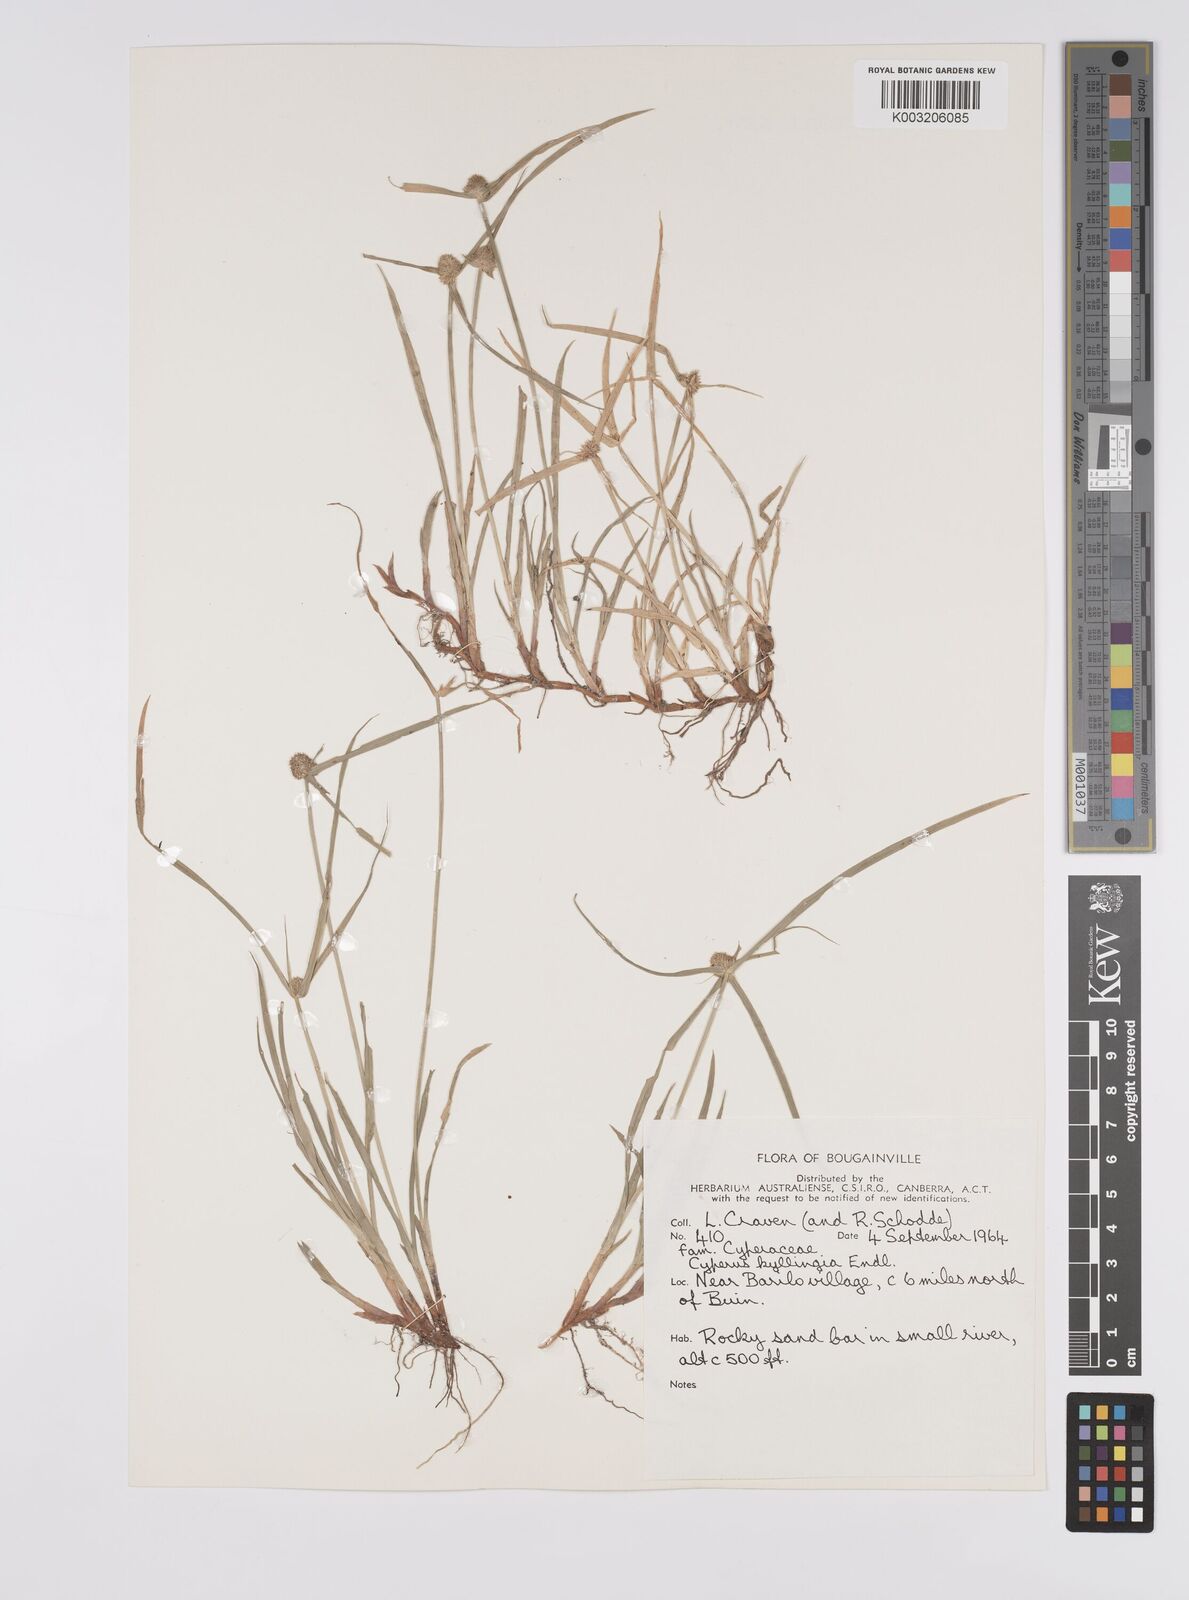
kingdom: Plantae
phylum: Tracheophyta
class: Liliopsida
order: Poales
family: Cyperaceae
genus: Cyperus
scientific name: Cyperus nemoralis
